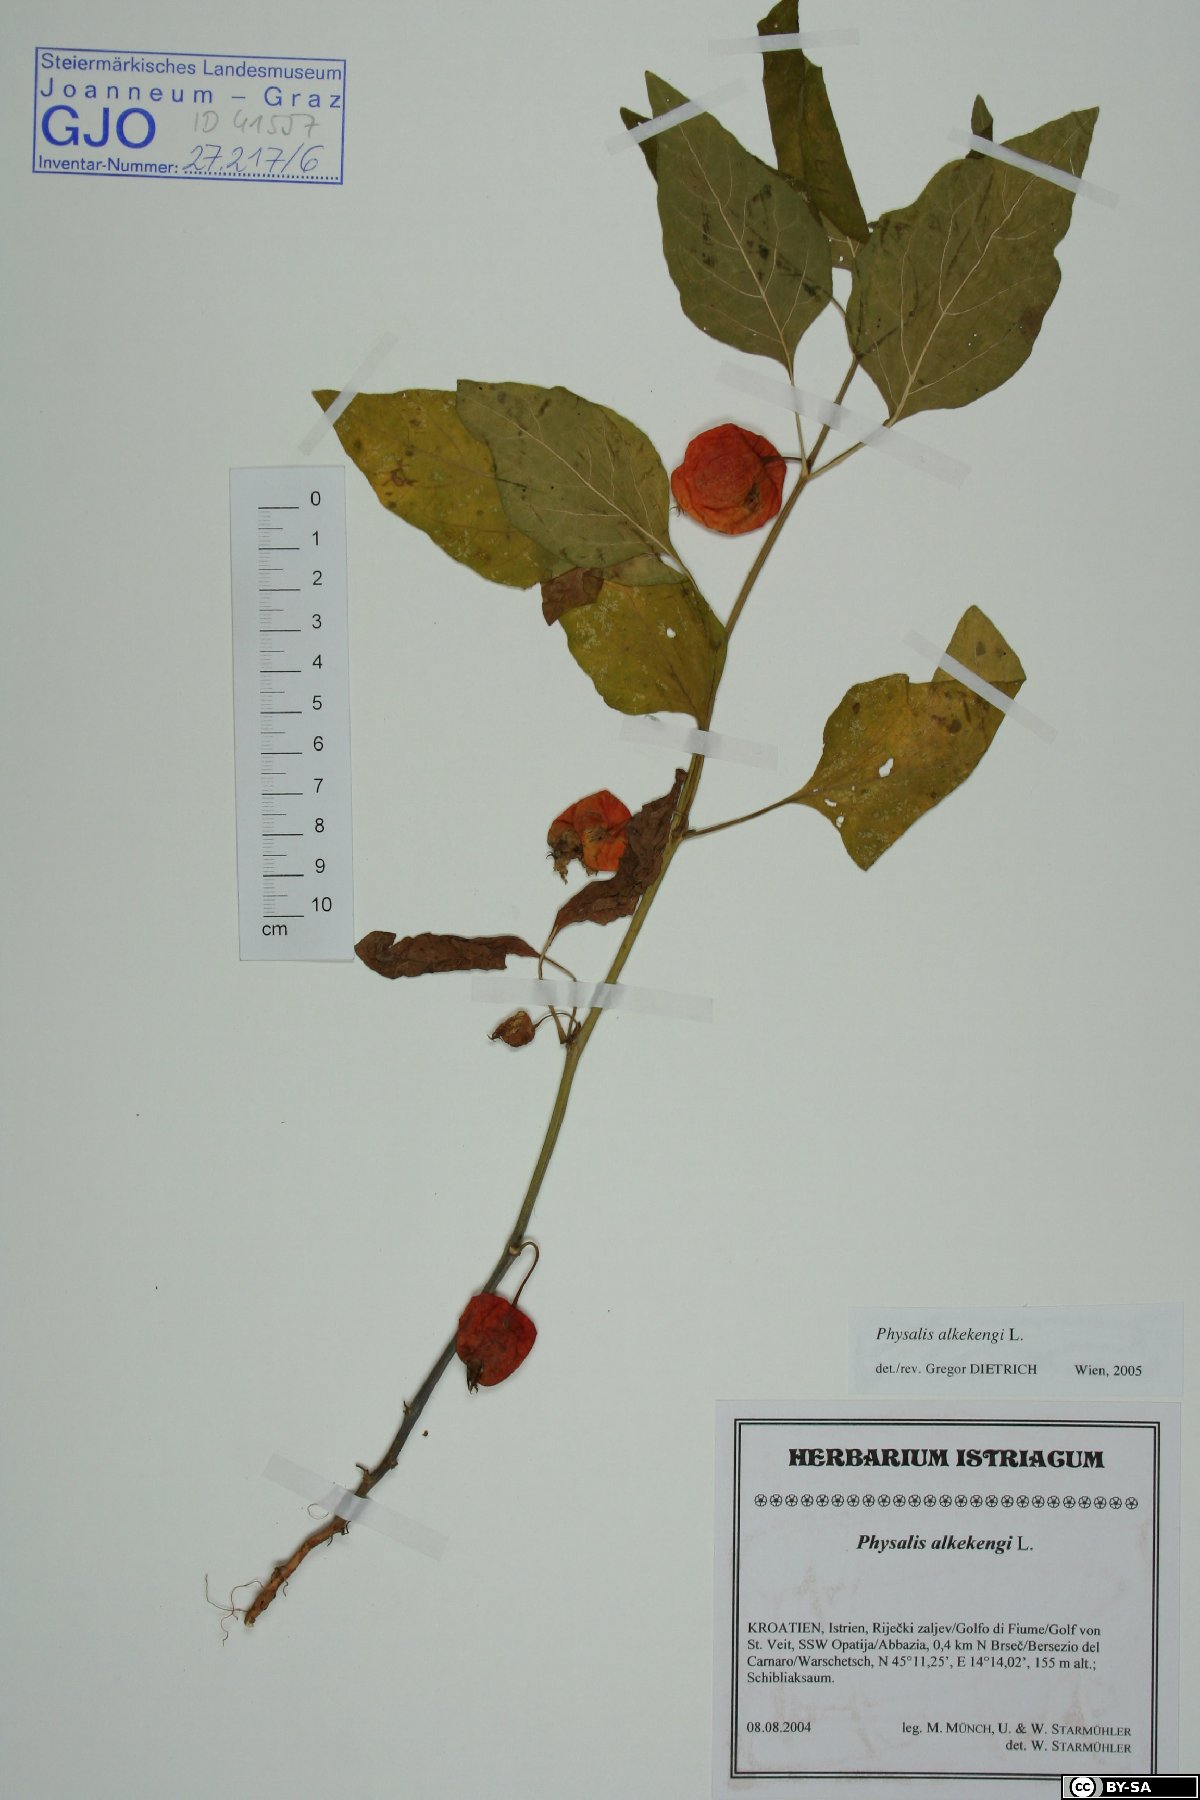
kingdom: Plantae
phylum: Tracheophyta
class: Magnoliopsida
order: Solanales
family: Solanaceae
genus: Alkekengi
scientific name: Alkekengi officinarum
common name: Japanese-lantern
